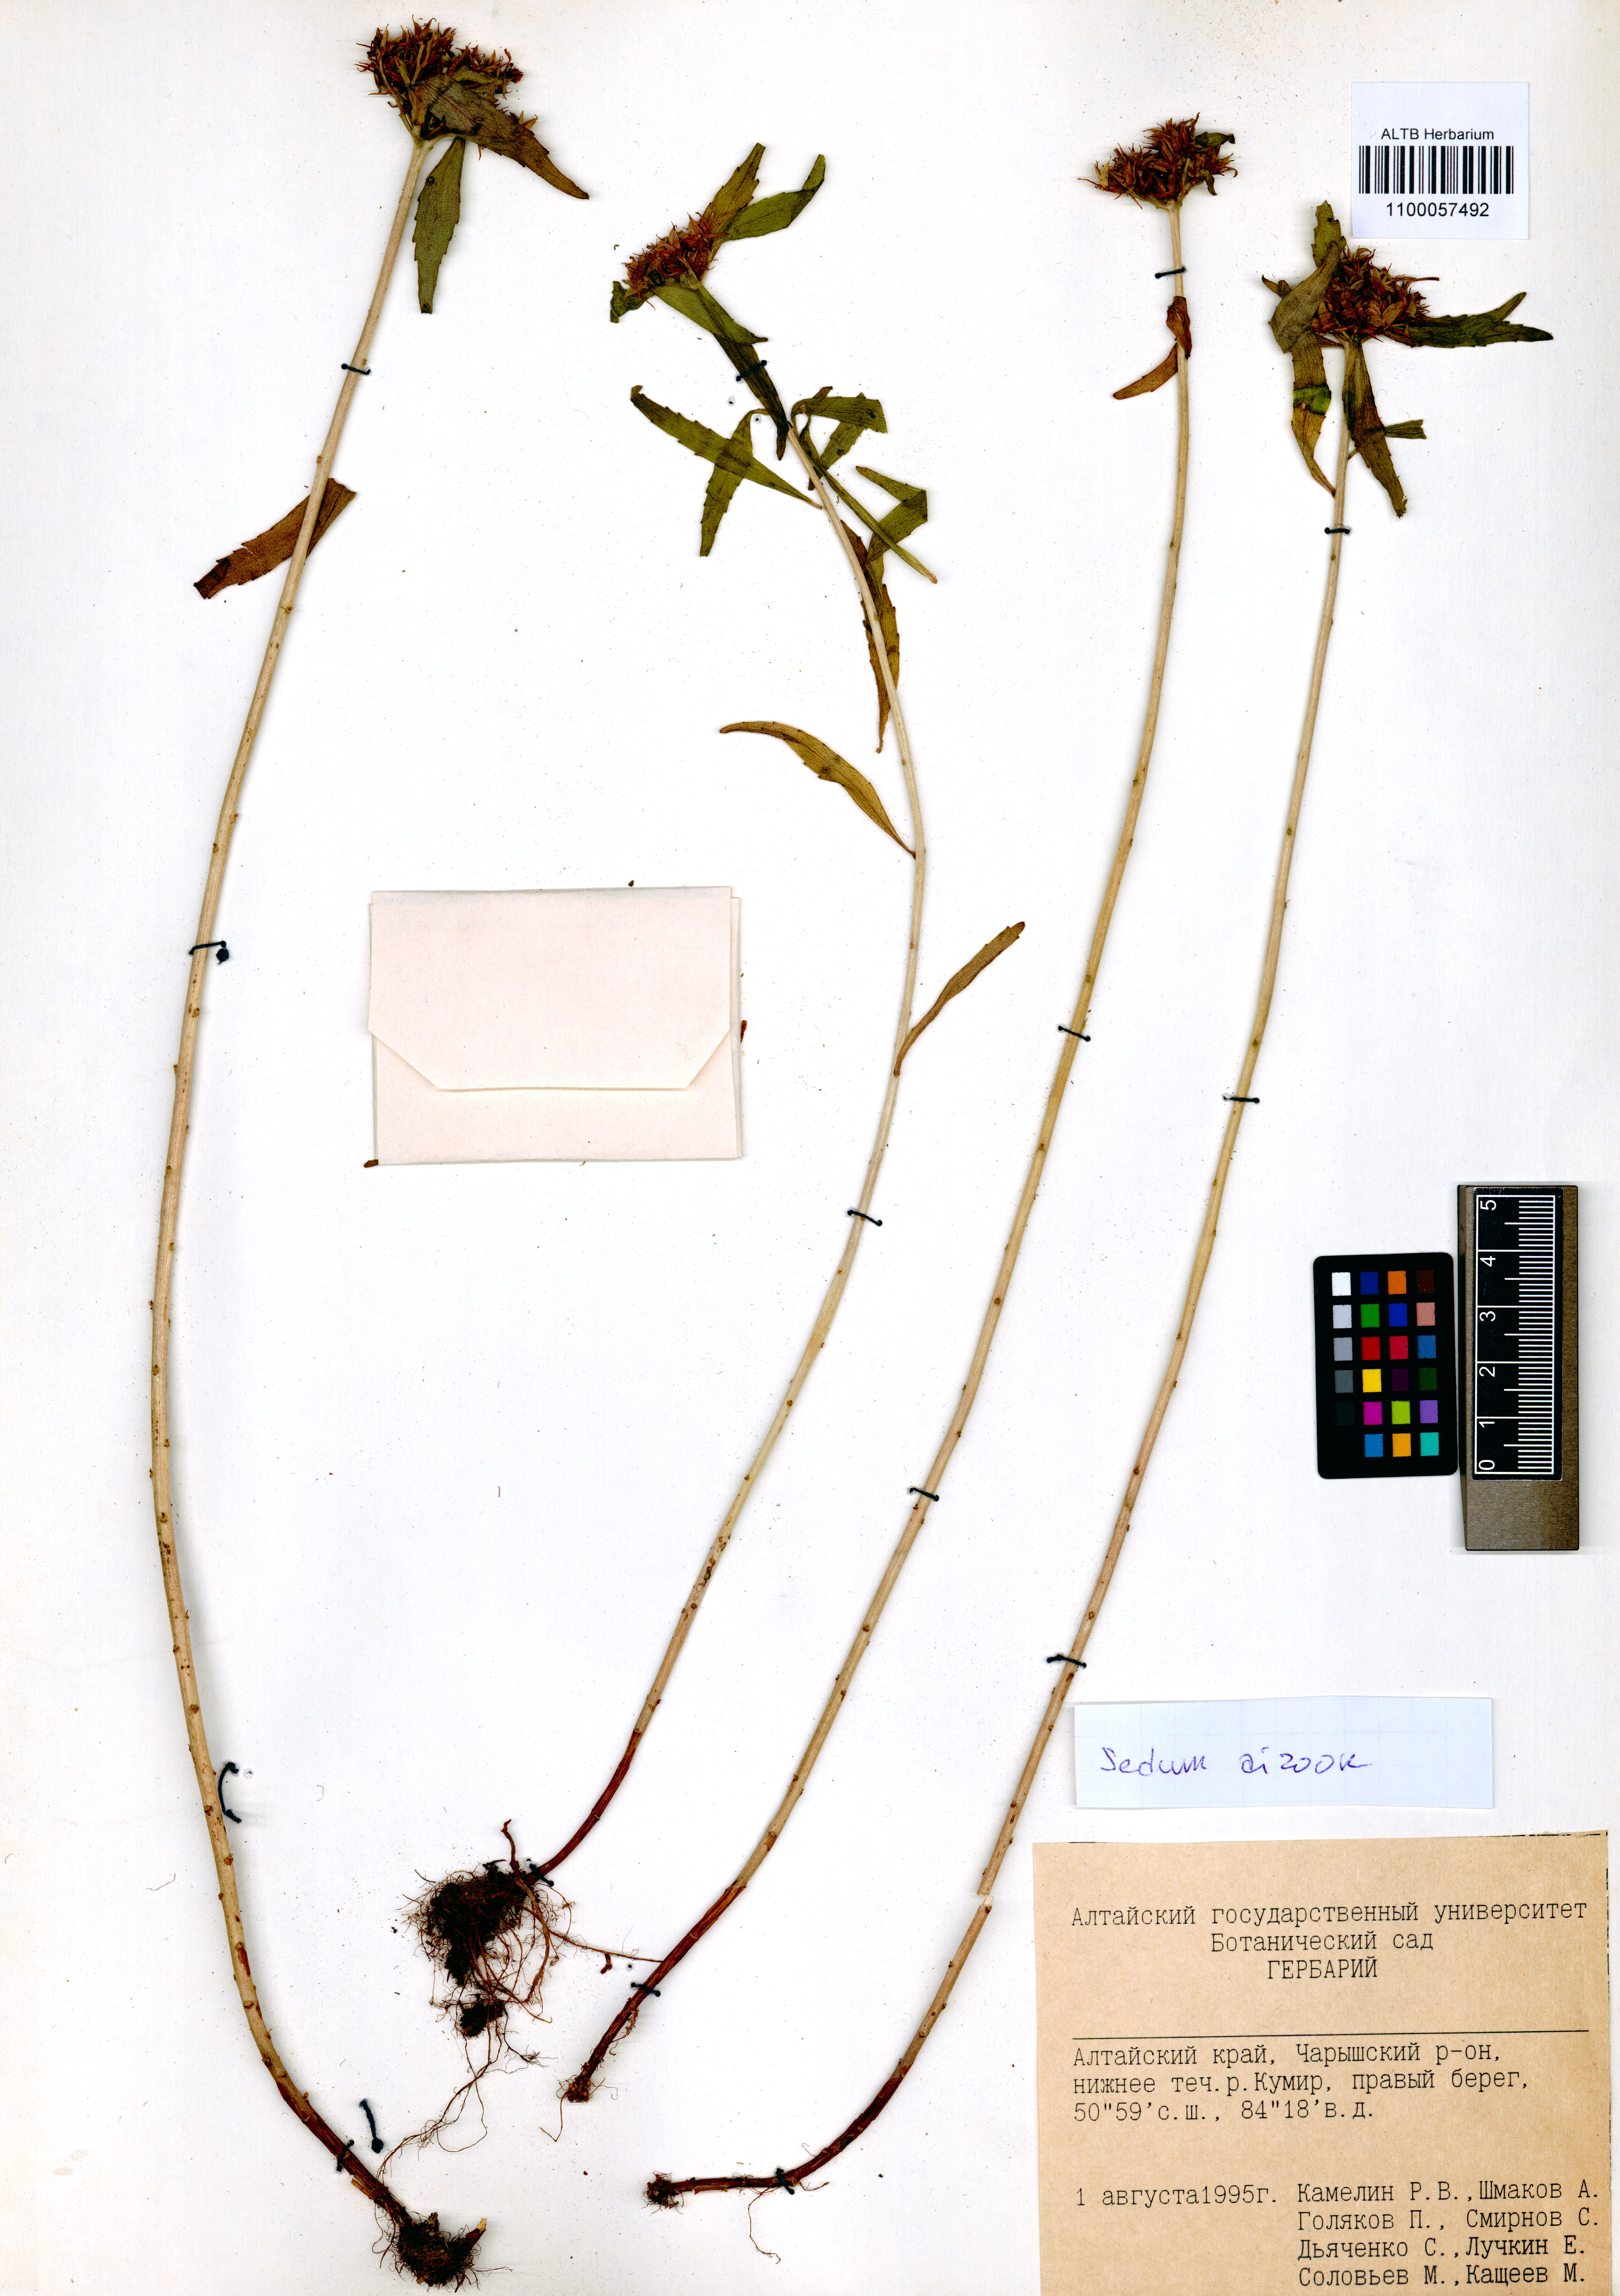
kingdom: Plantae
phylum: Tracheophyta
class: Magnoliopsida
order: Saxifragales
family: Crassulaceae
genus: Phedimus
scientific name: Phedimus aizoon
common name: Orpin aizoon
